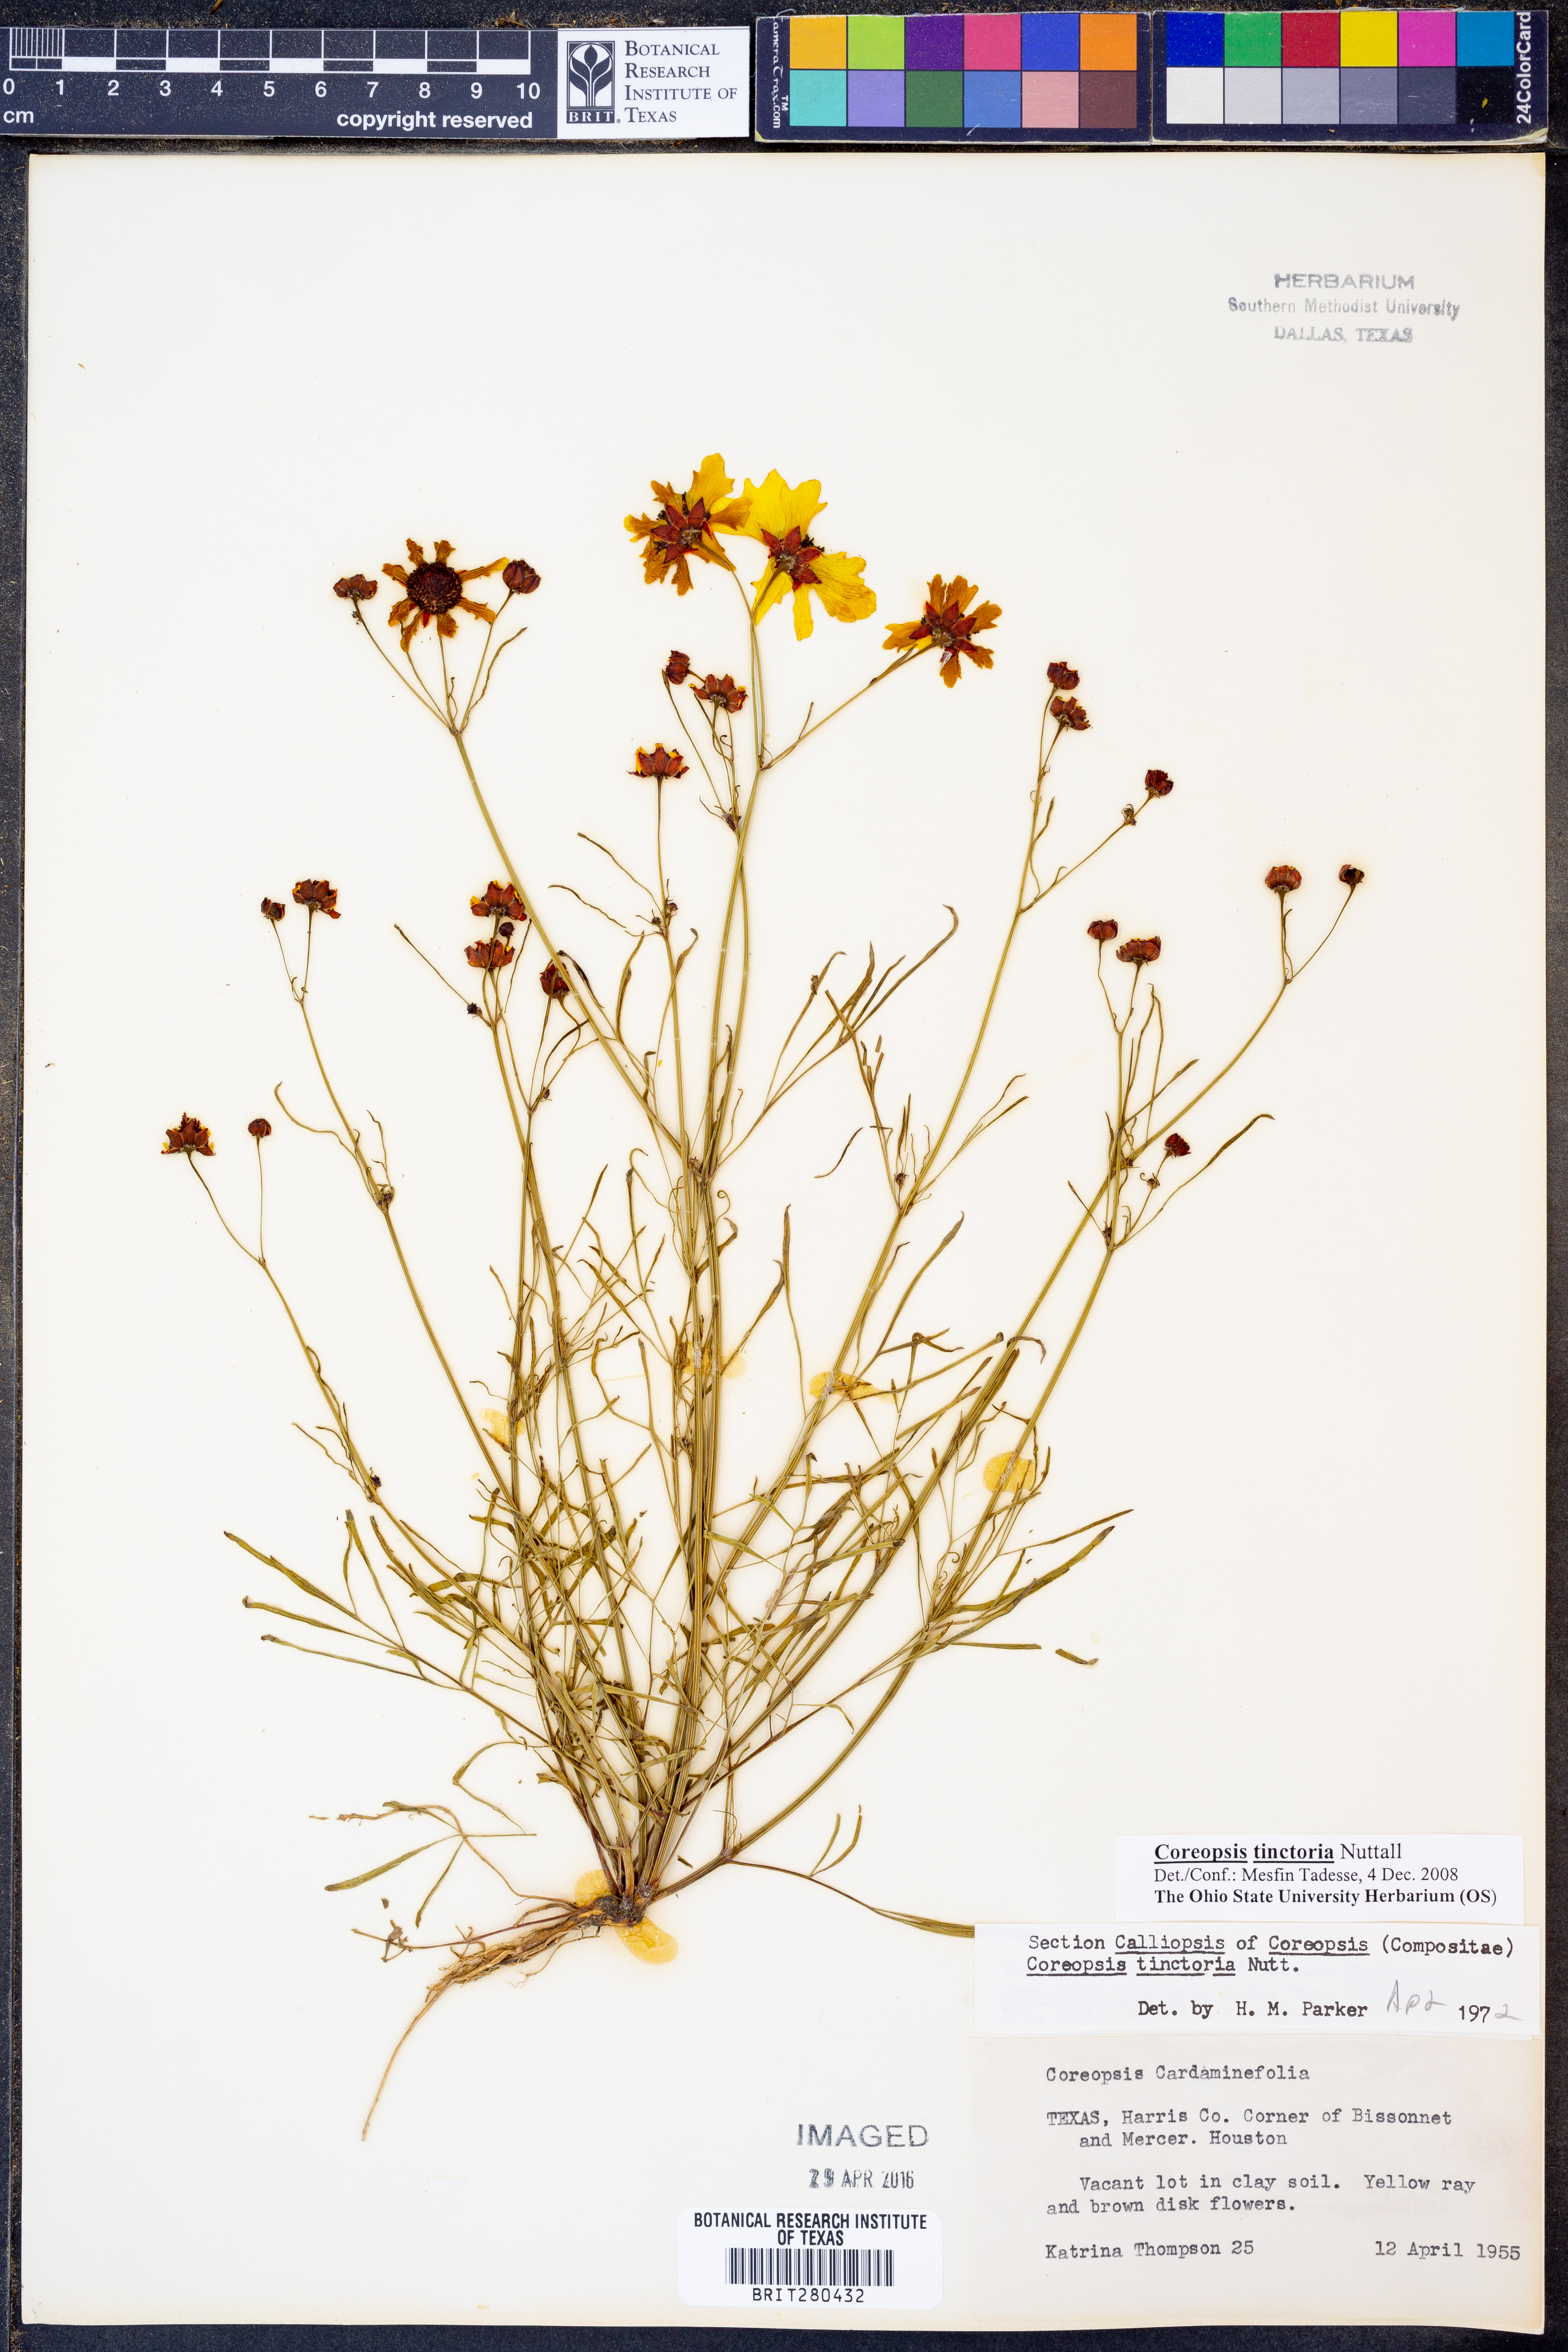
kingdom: Plantae
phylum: Tracheophyta
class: Magnoliopsida
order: Asterales
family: Asteraceae
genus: Coreopsis
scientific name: Coreopsis tinctoria
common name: Garden tickseed
